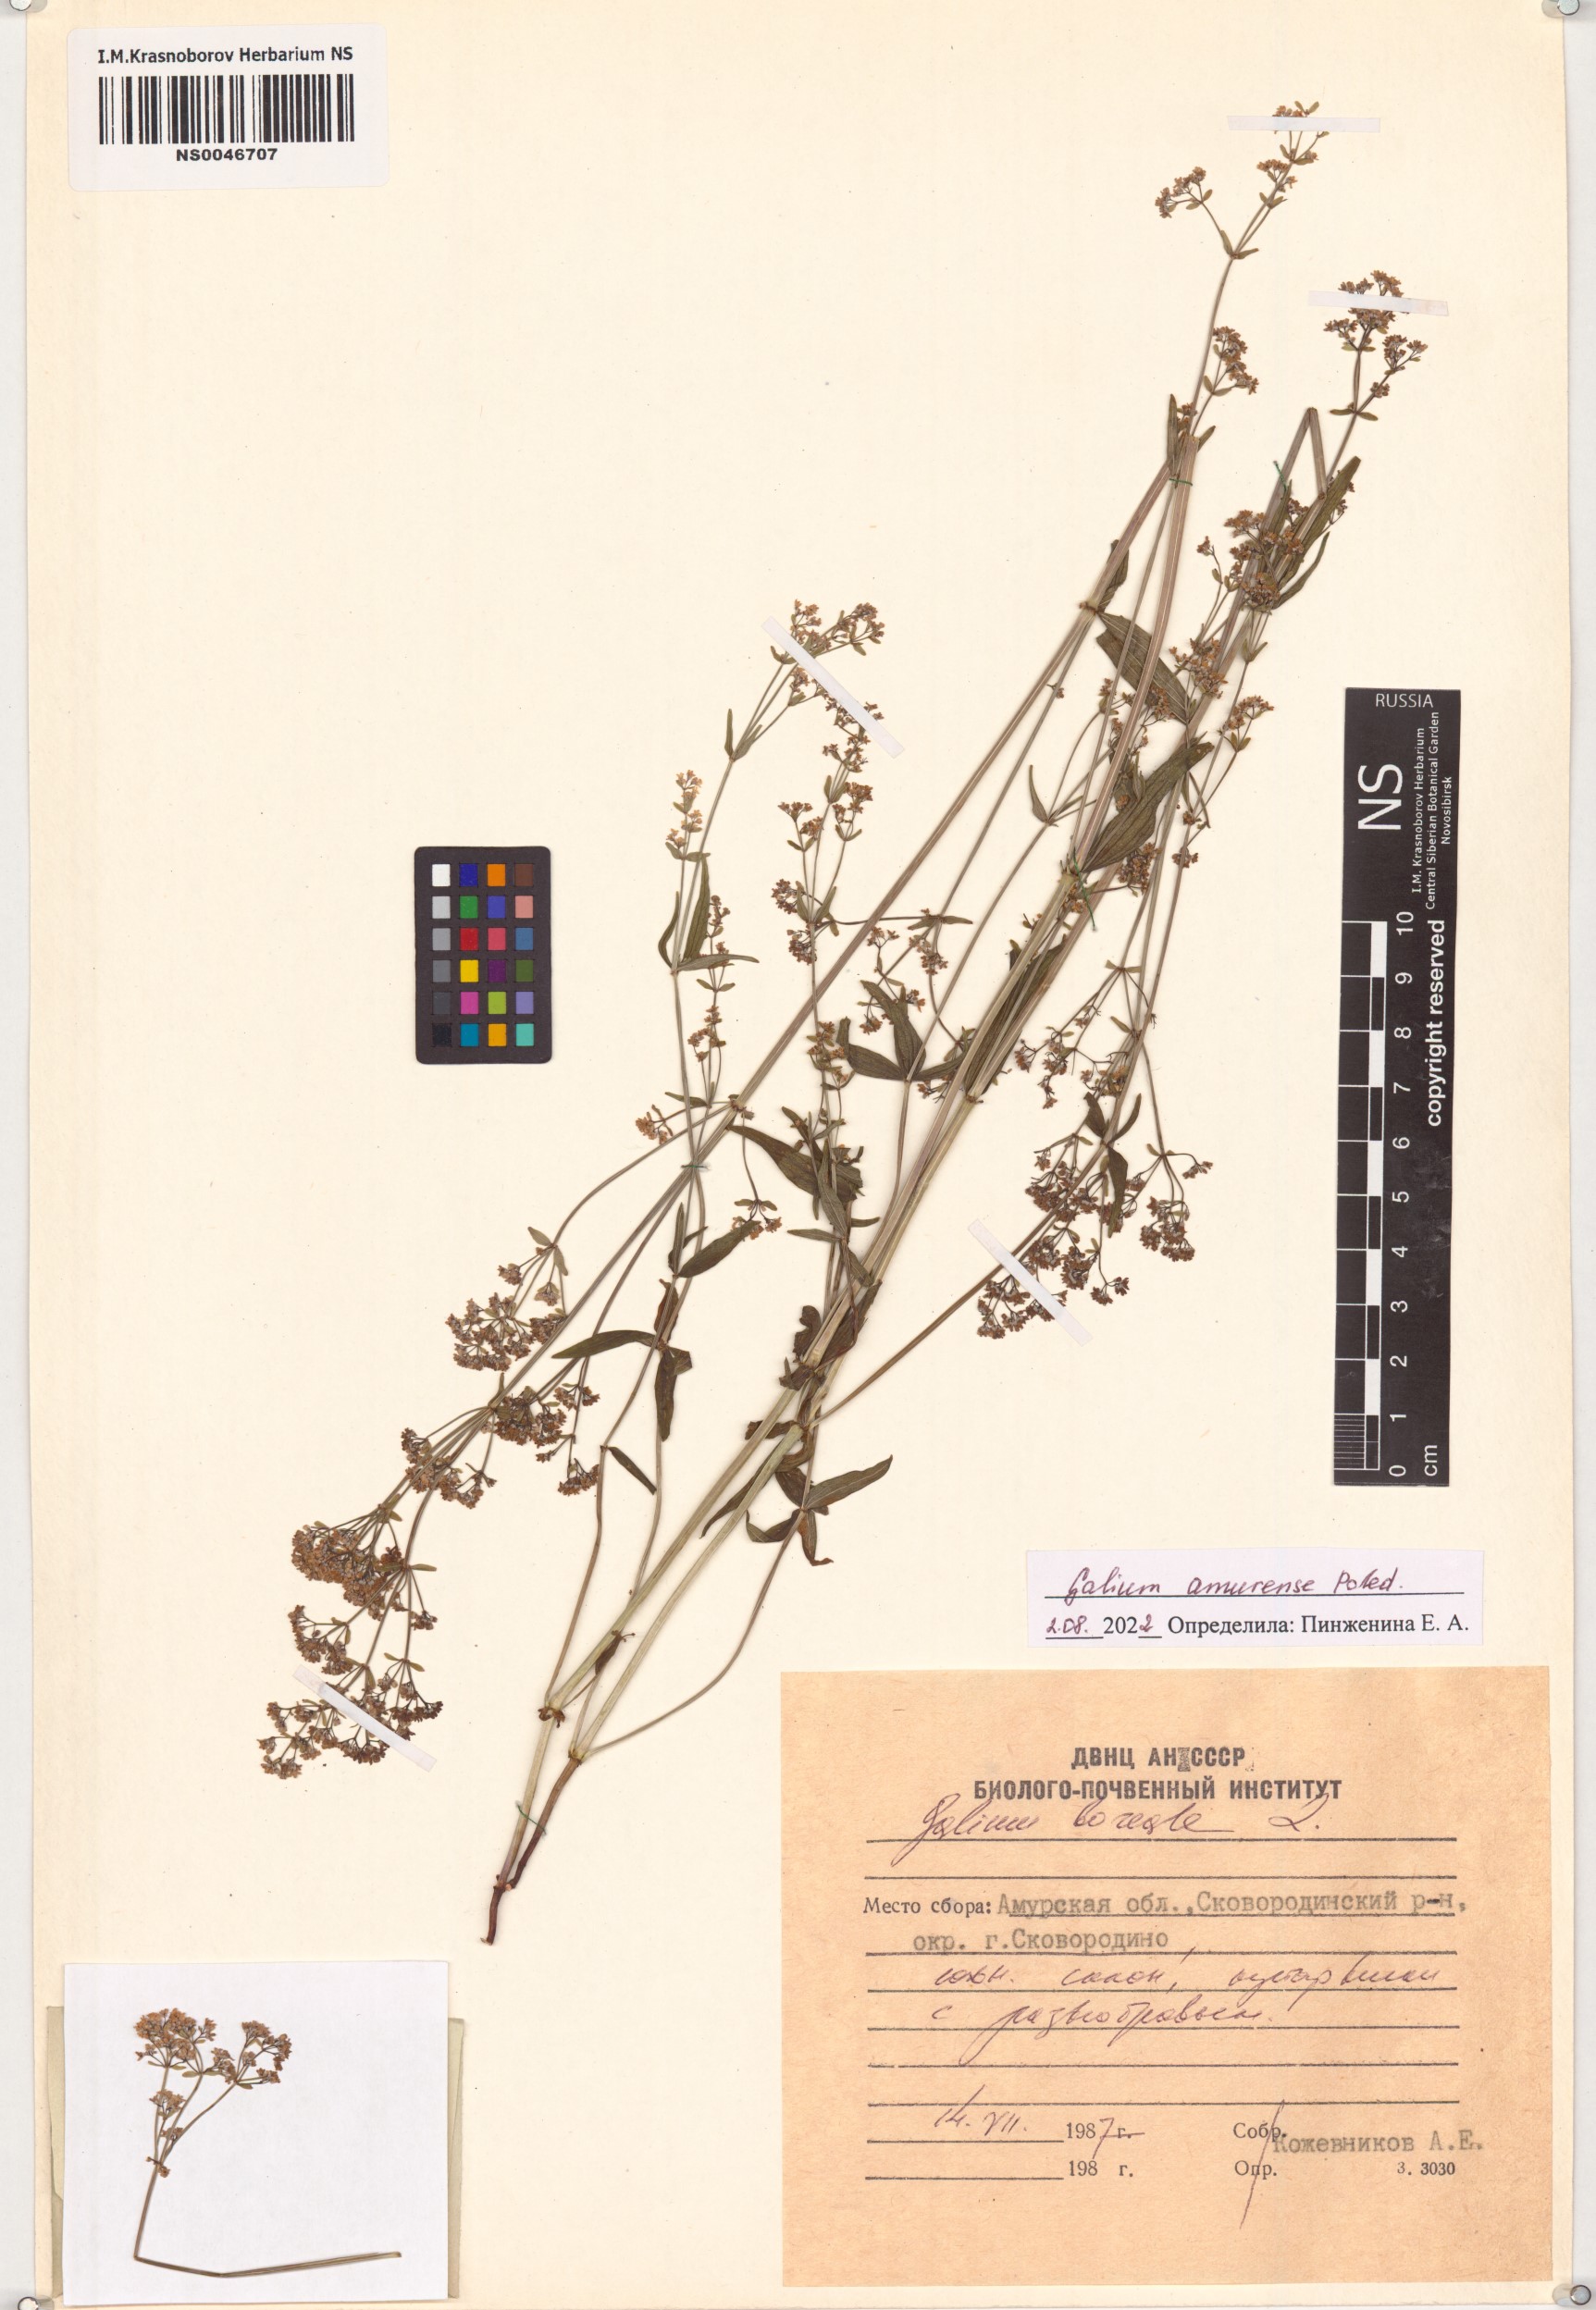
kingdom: Plantae
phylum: Tracheophyta
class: Magnoliopsida
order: Gentianales
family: Rubiaceae
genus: Galium
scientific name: Galium amurense
